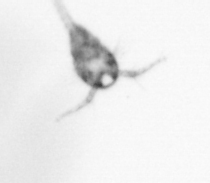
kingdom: Animalia
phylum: Arthropoda
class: Copepoda
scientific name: Copepoda
